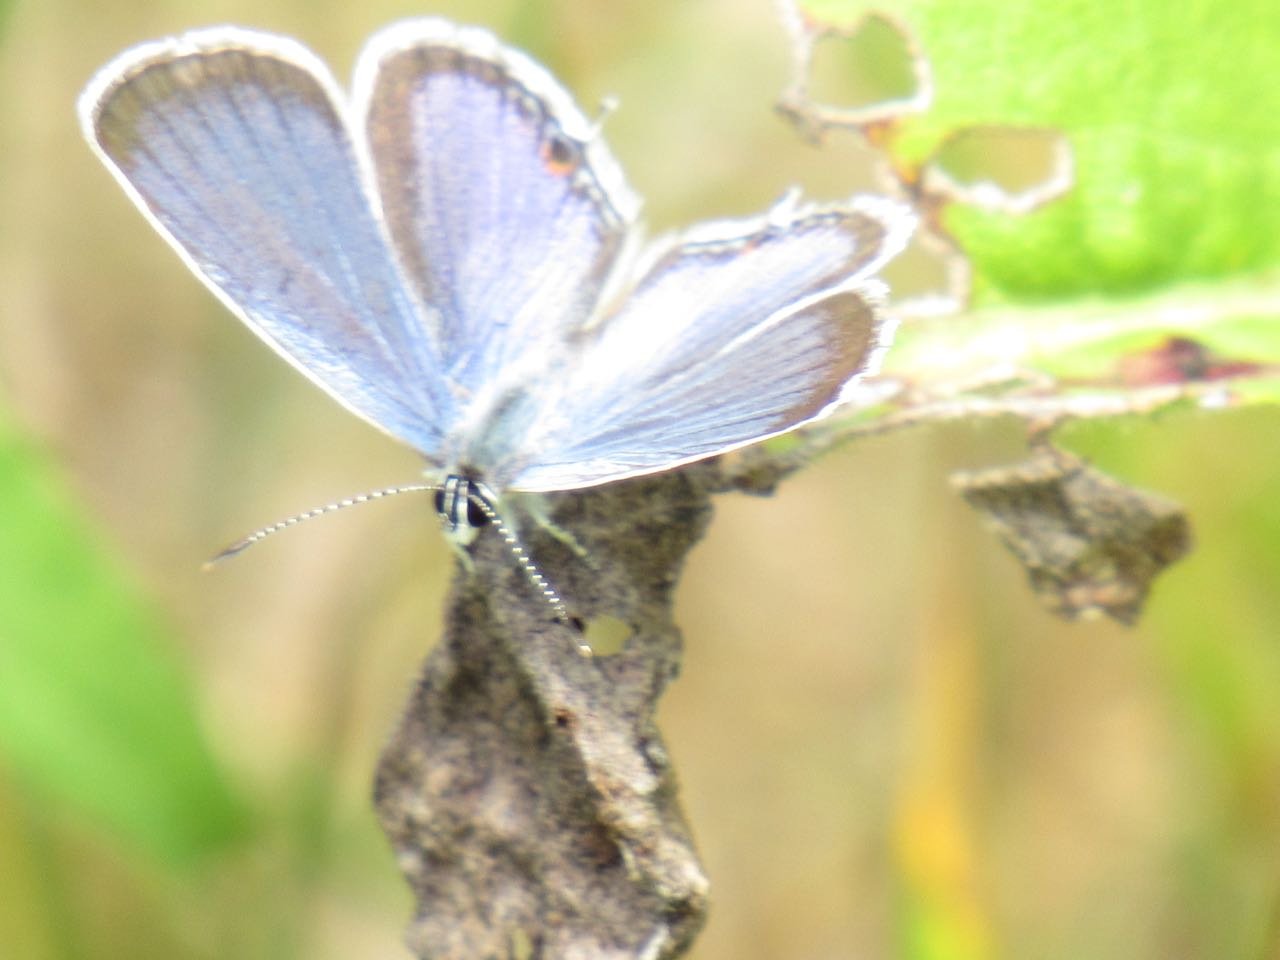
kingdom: Animalia
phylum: Arthropoda
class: Insecta
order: Lepidoptera
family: Lycaenidae
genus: Elkalyce
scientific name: Elkalyce comyntas
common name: Eastern Tailed-Blue
